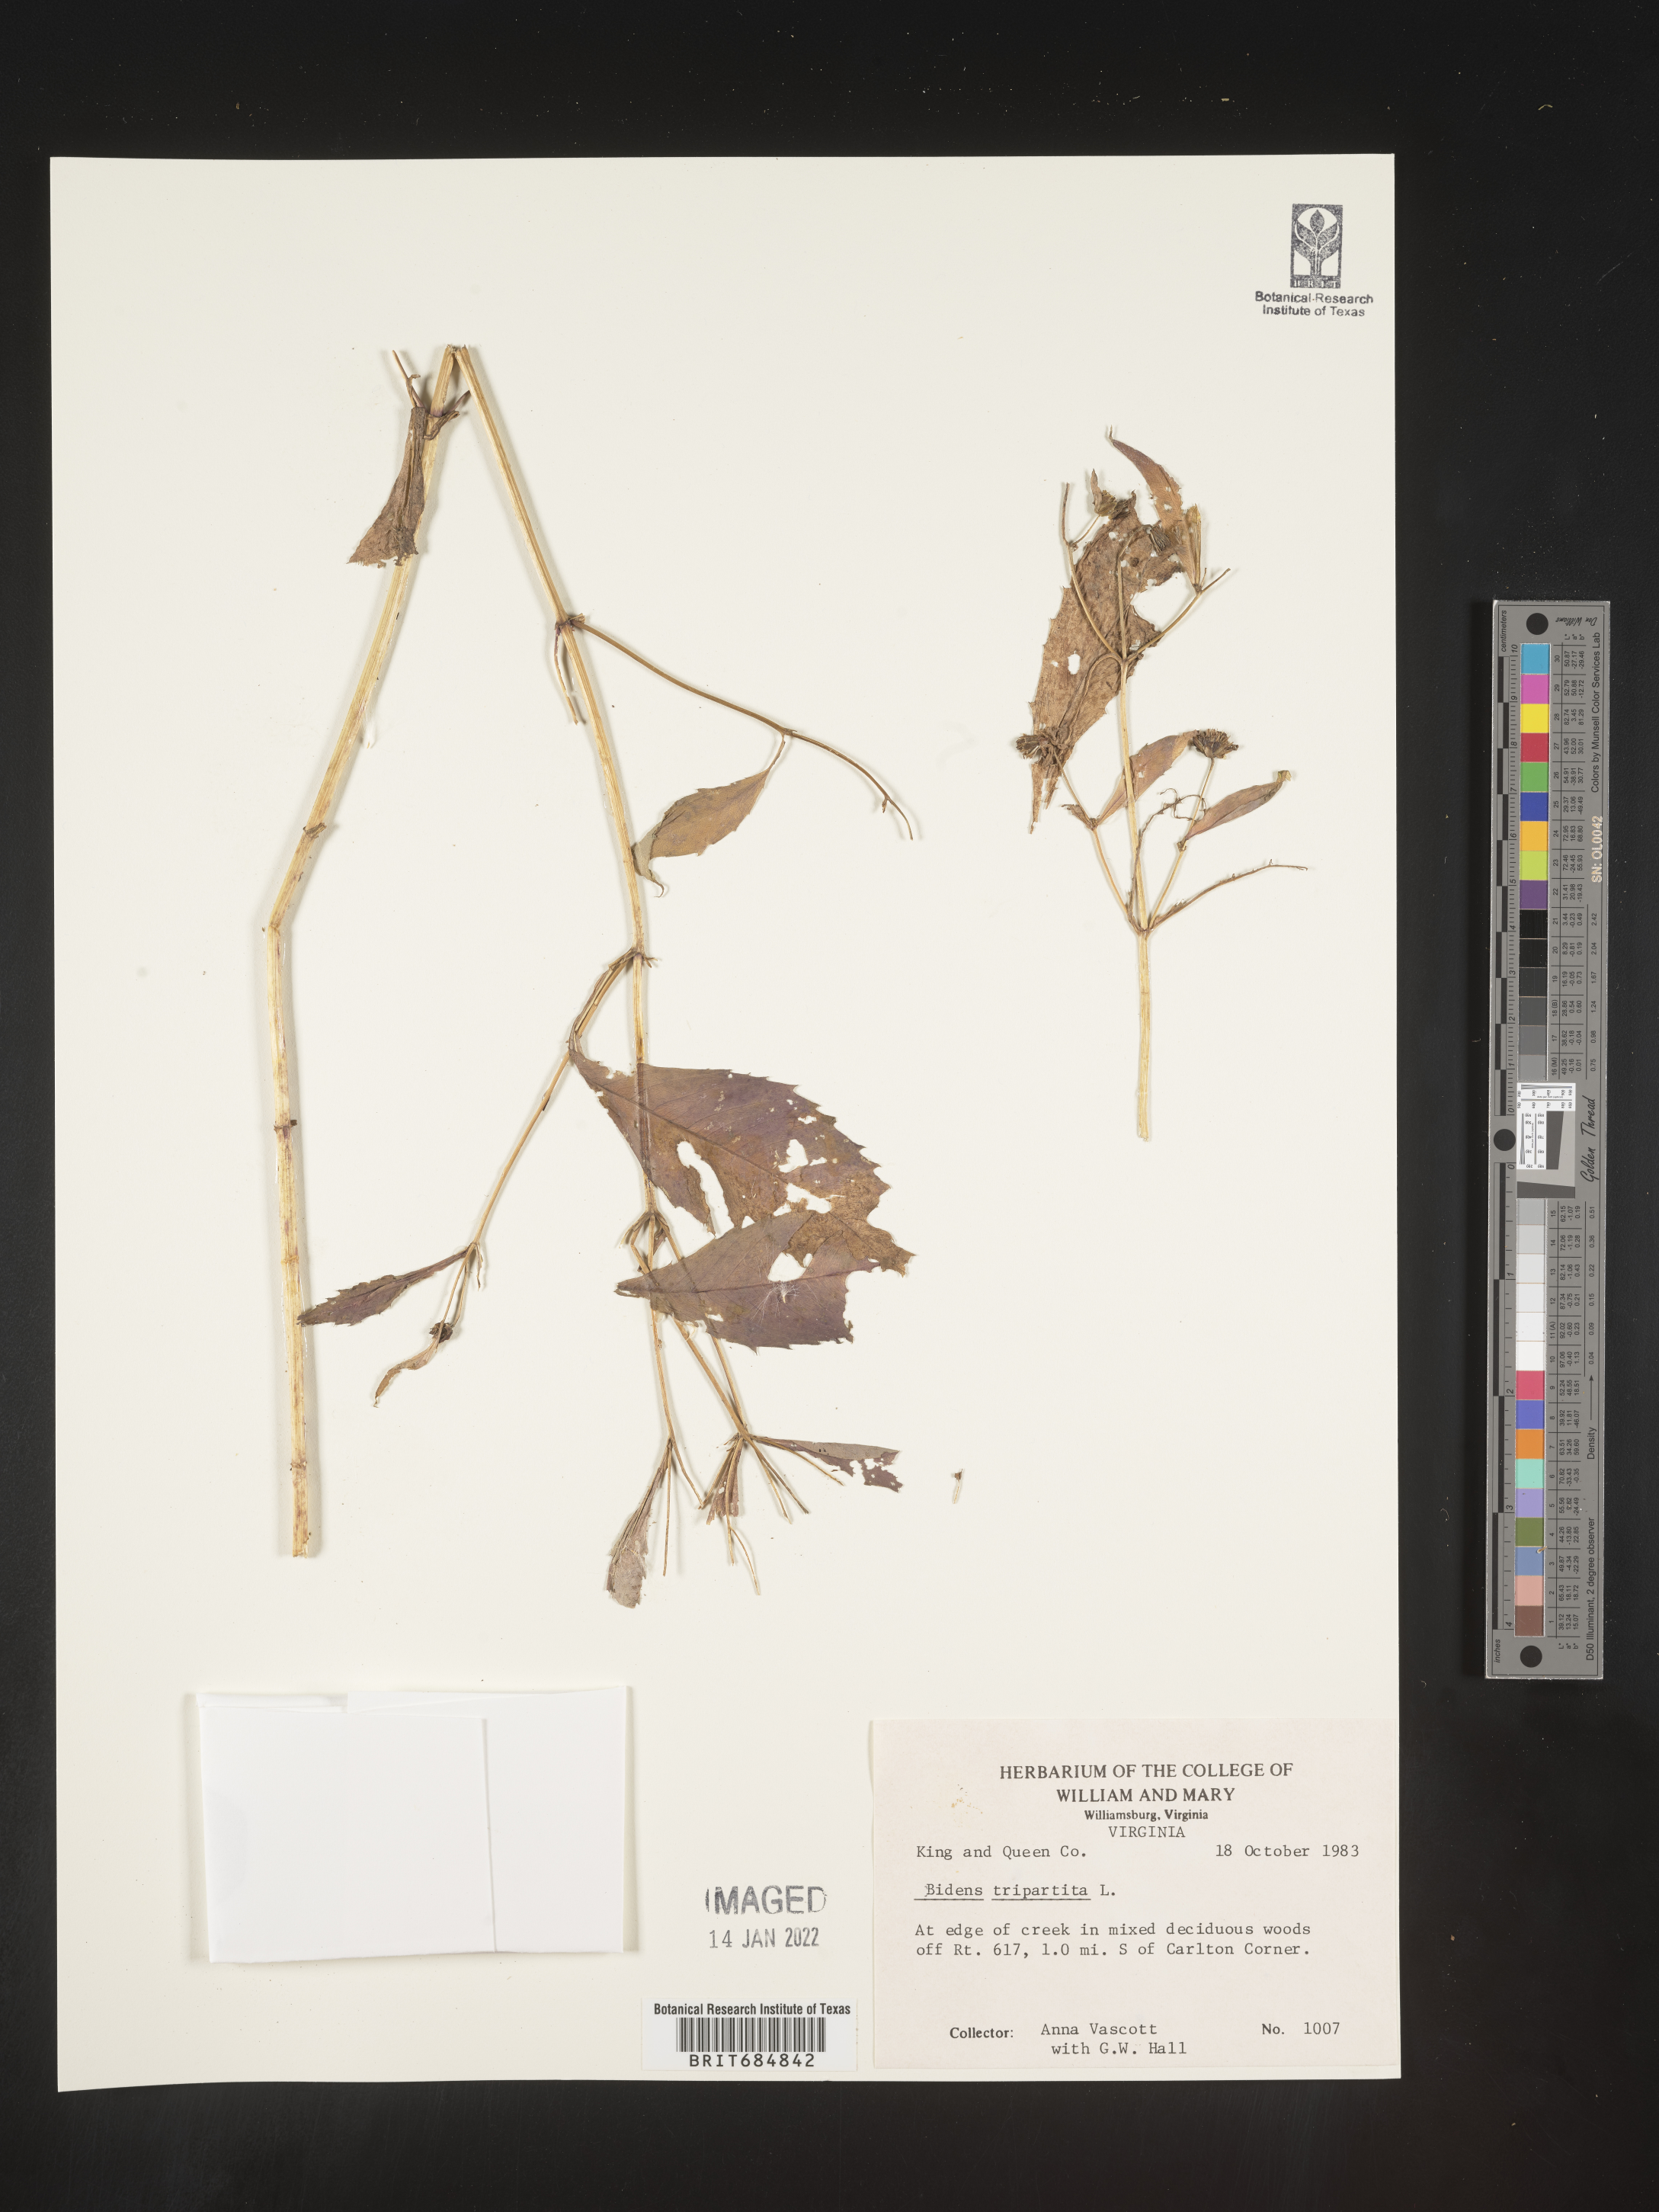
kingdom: Plantae
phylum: Tracheophyta
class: Magnoliopsida
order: Asterales
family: Asteraceae
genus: Bidens
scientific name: Bidens tripartita
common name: Trifid bur-marigold
